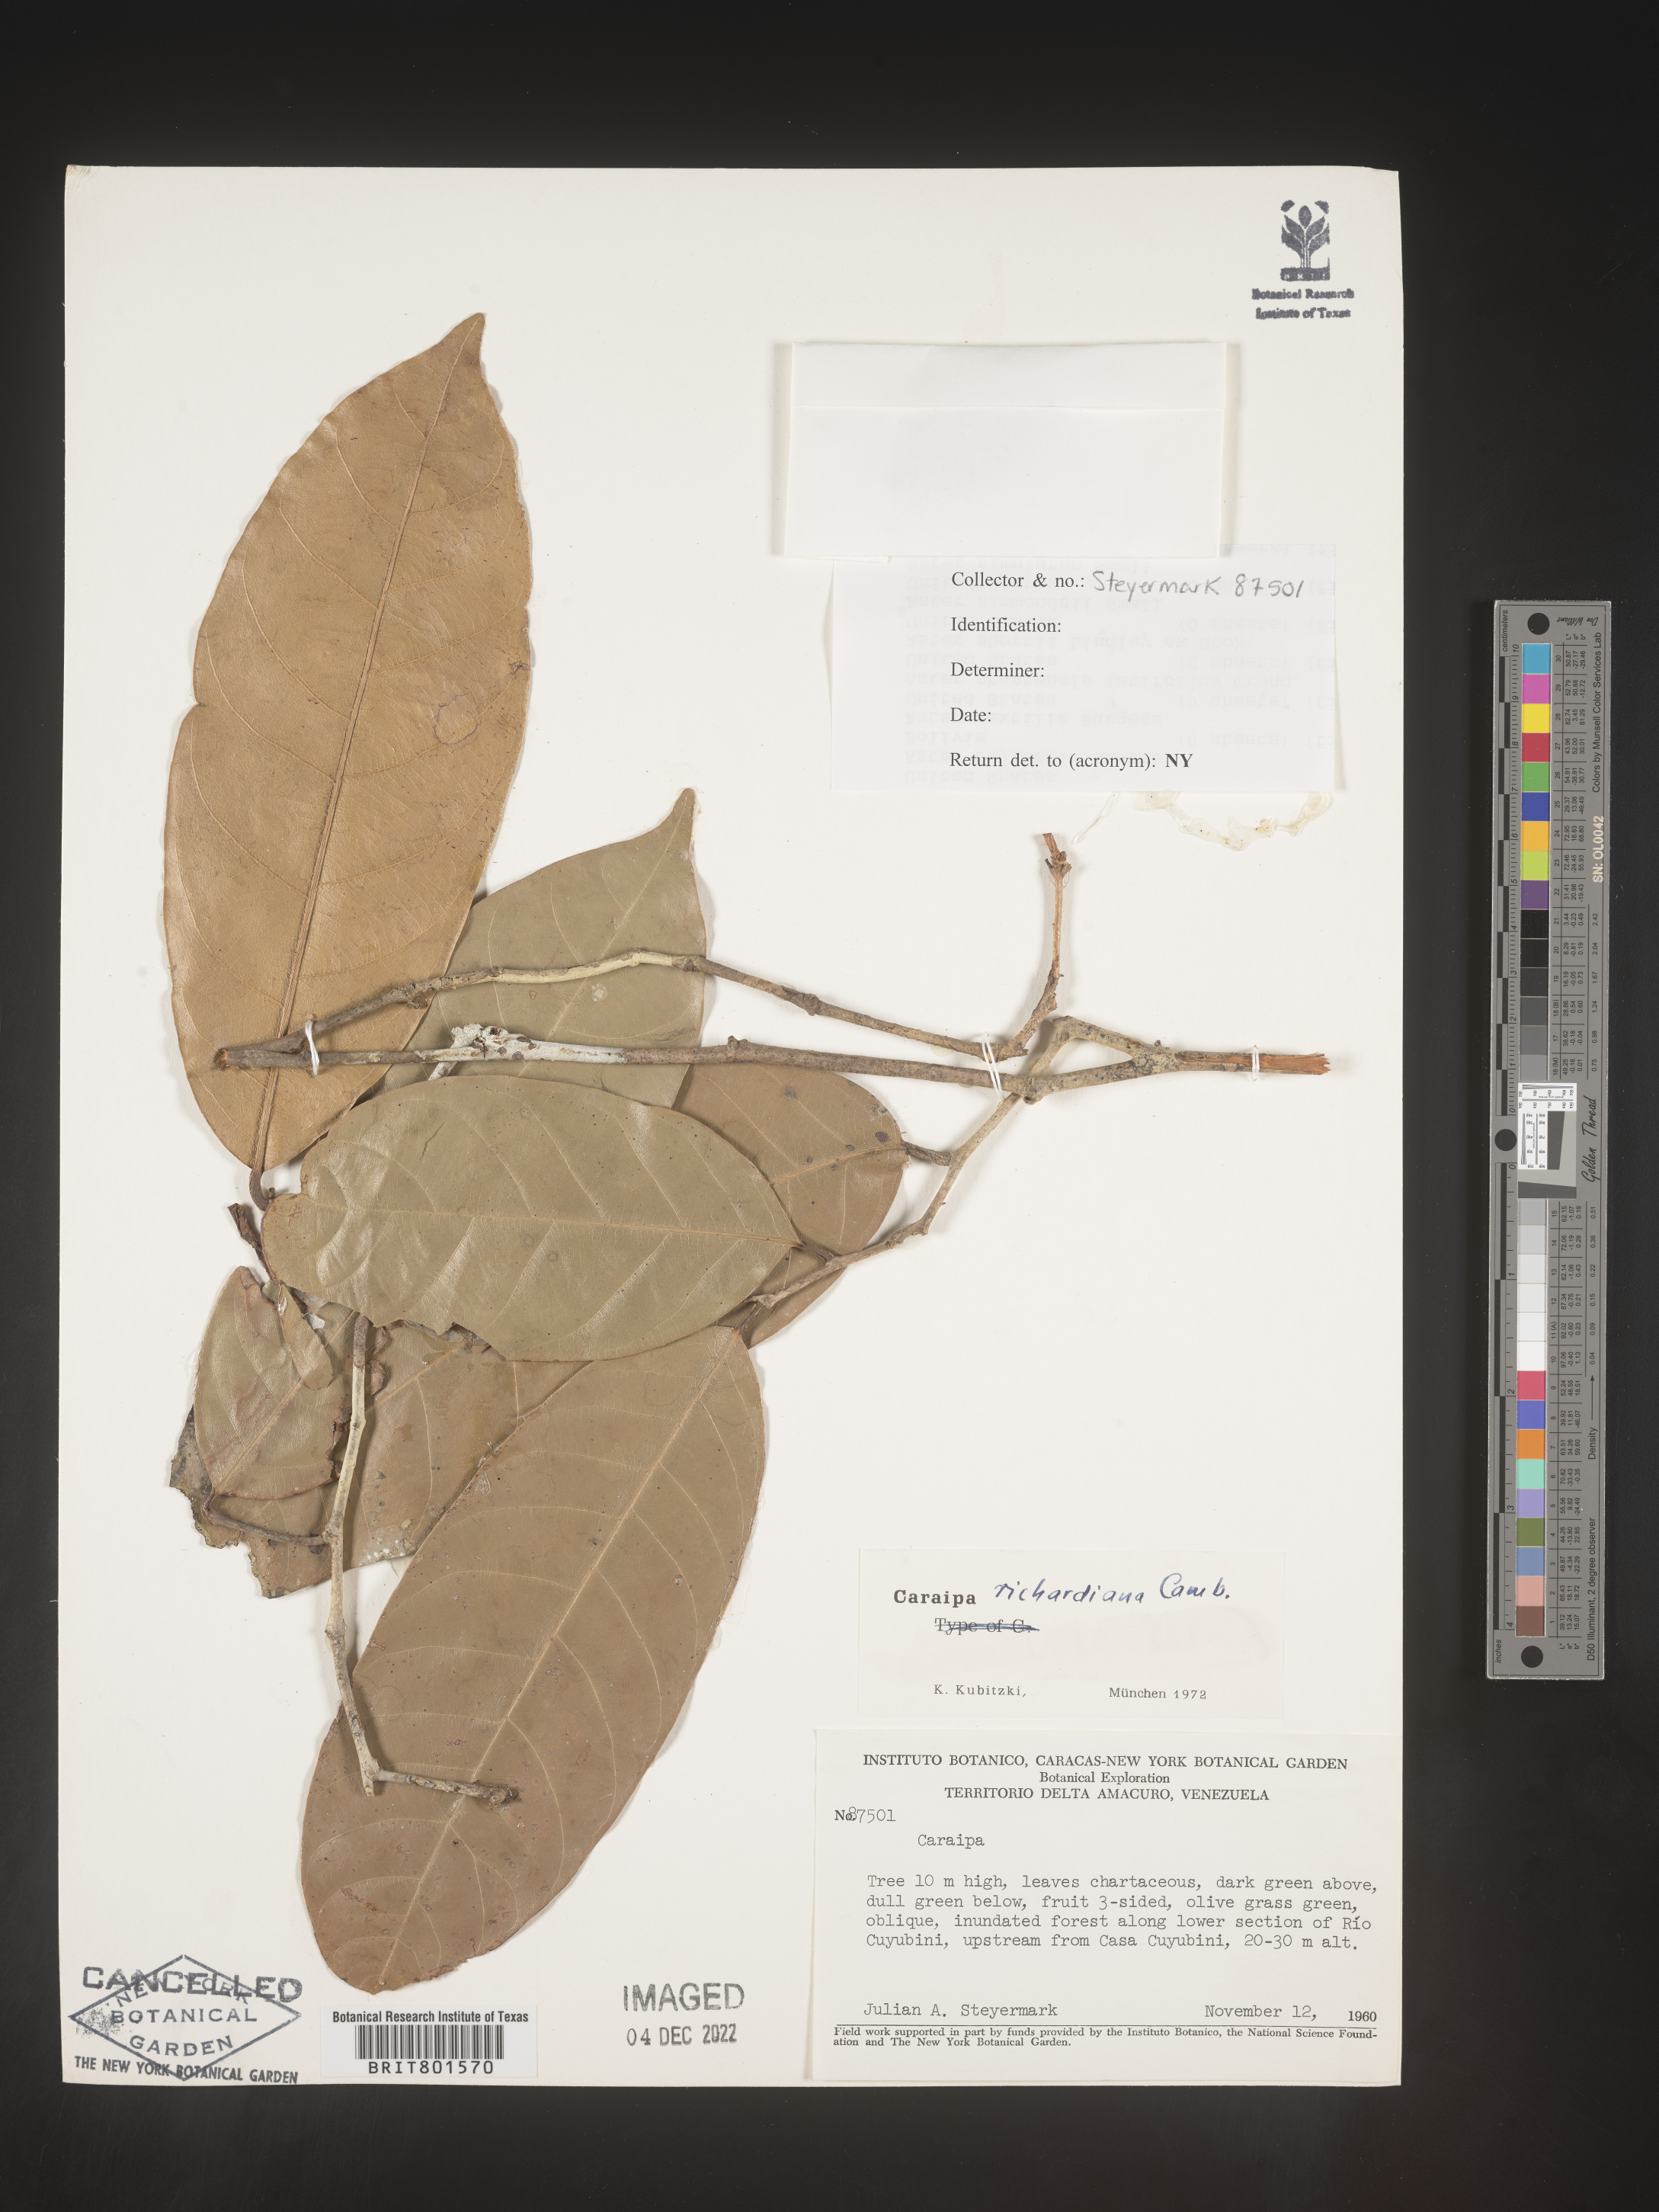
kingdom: Plantae
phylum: Tracheophyta
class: Magnoliopsida
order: Malpighiales
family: Calophyllaceae
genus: Caraipa
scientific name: Caraipa
